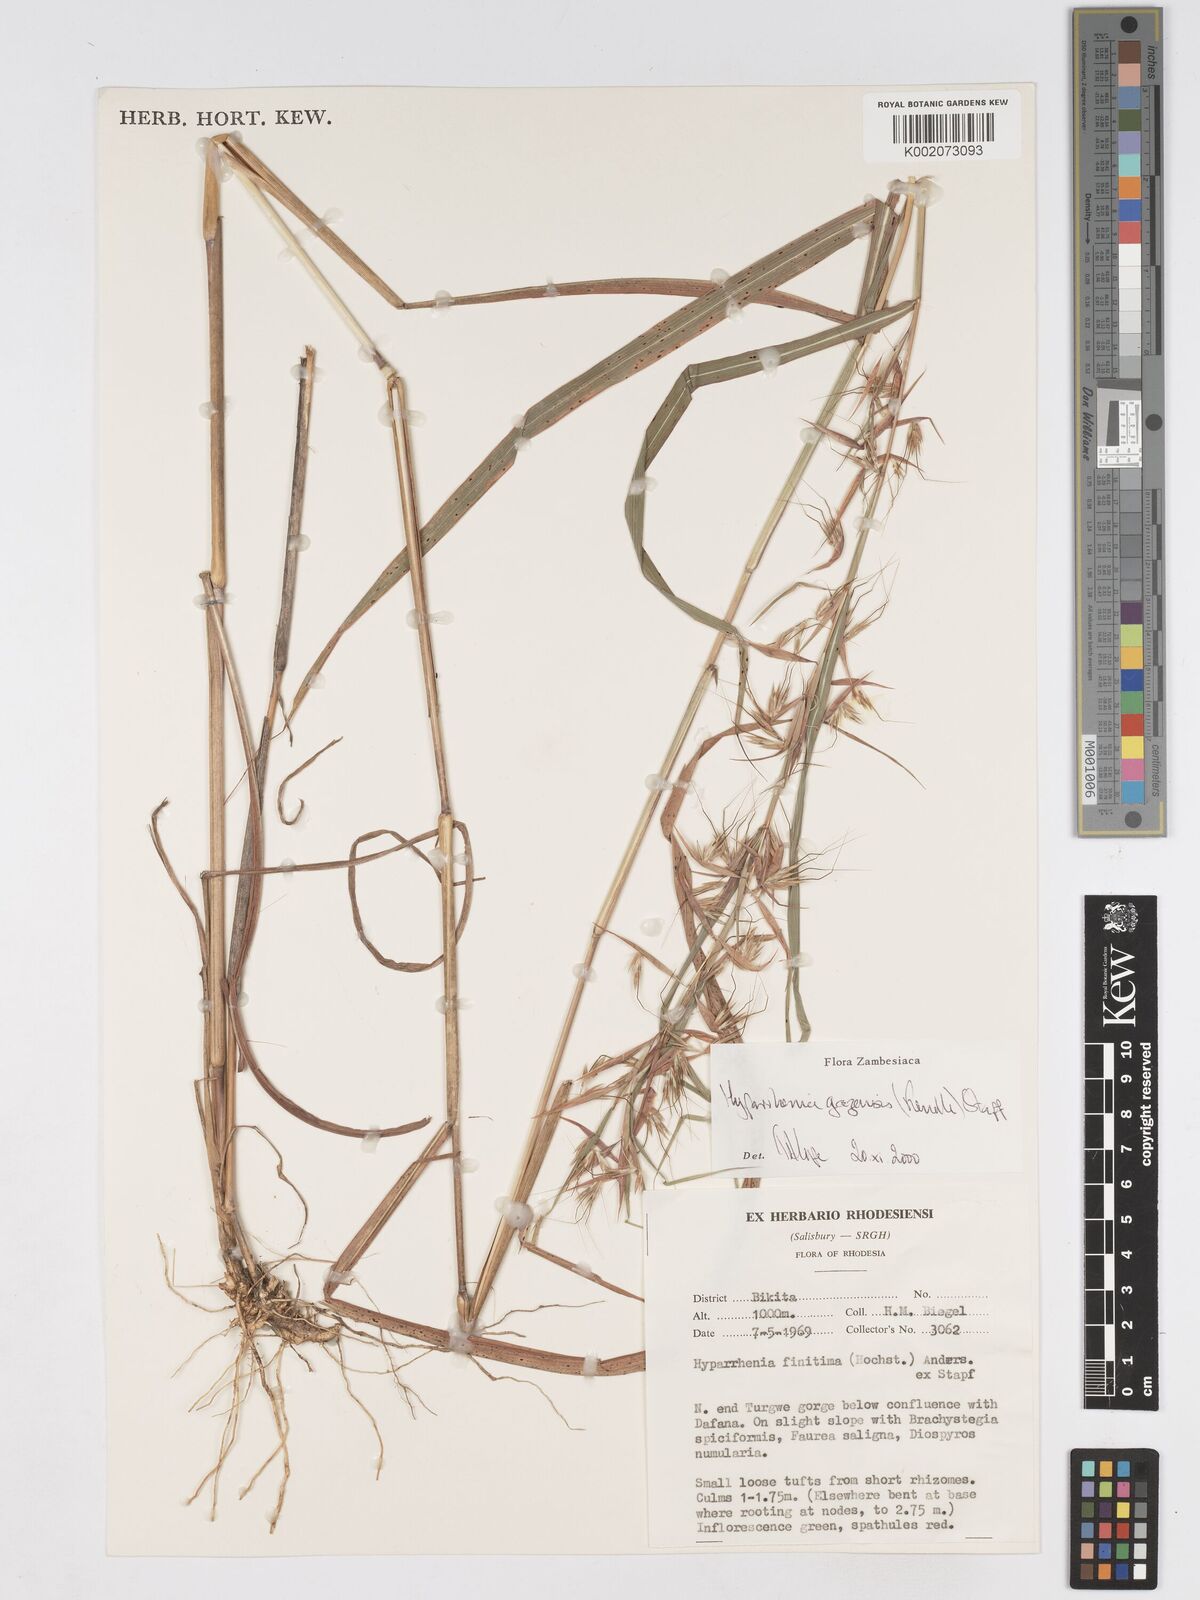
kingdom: Plantae
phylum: Tracheophyta
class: Liliopsida
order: Poales
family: Poaceae
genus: Hyparrhenia
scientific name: Hyparrhenia gazensis
